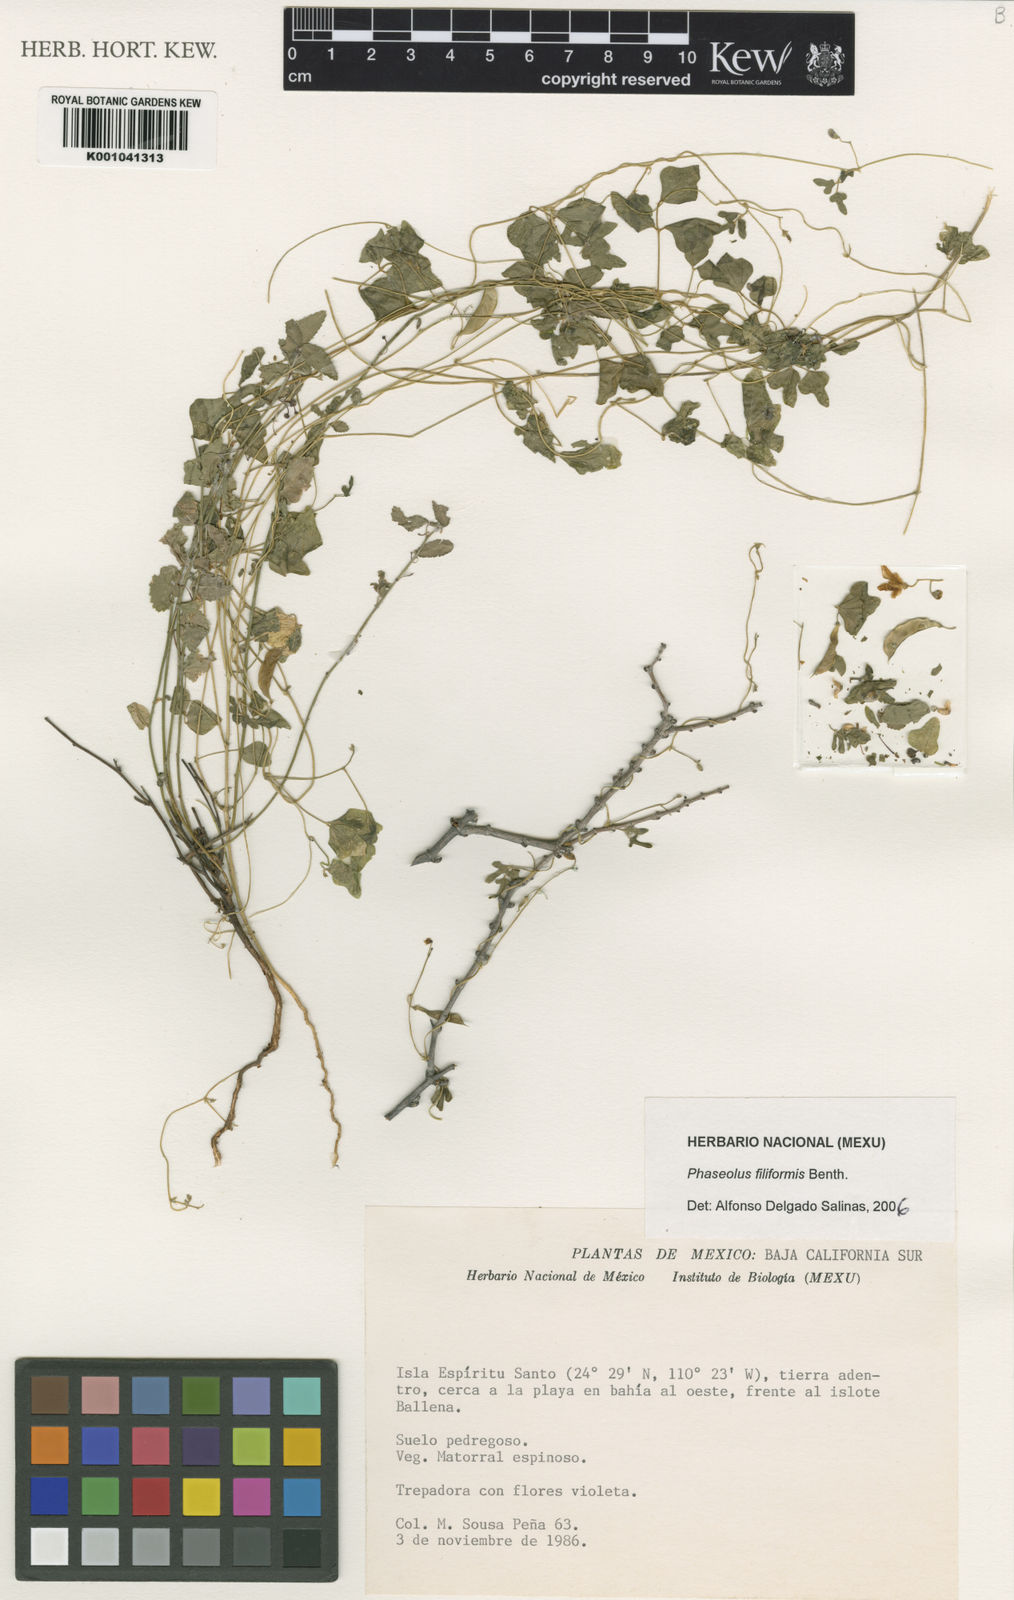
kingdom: Plantae
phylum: Tracheophyta
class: Magnoliopsida
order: Fabales
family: Fabaceae
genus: Phaseolus
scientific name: Phaseolus filiformis
